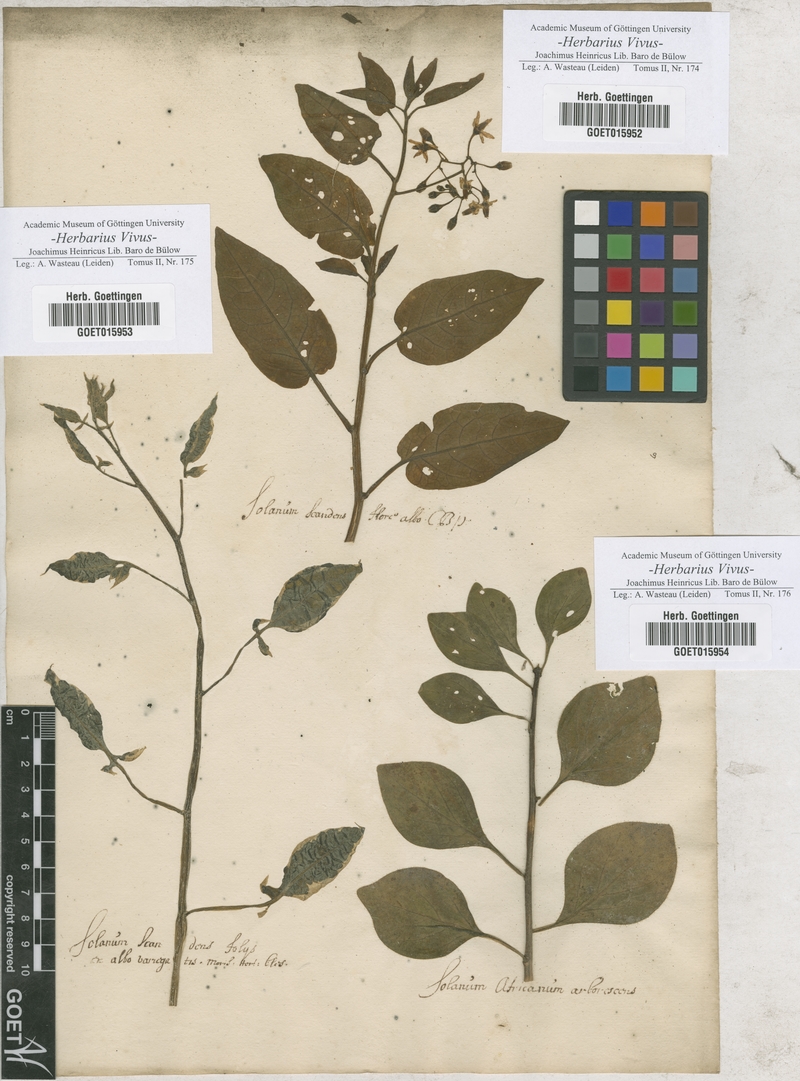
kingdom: Plantae
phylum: Tracheophyta
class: Magnoliopsida
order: Solanales
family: Solanaceae
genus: Solanum
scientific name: Solanum
